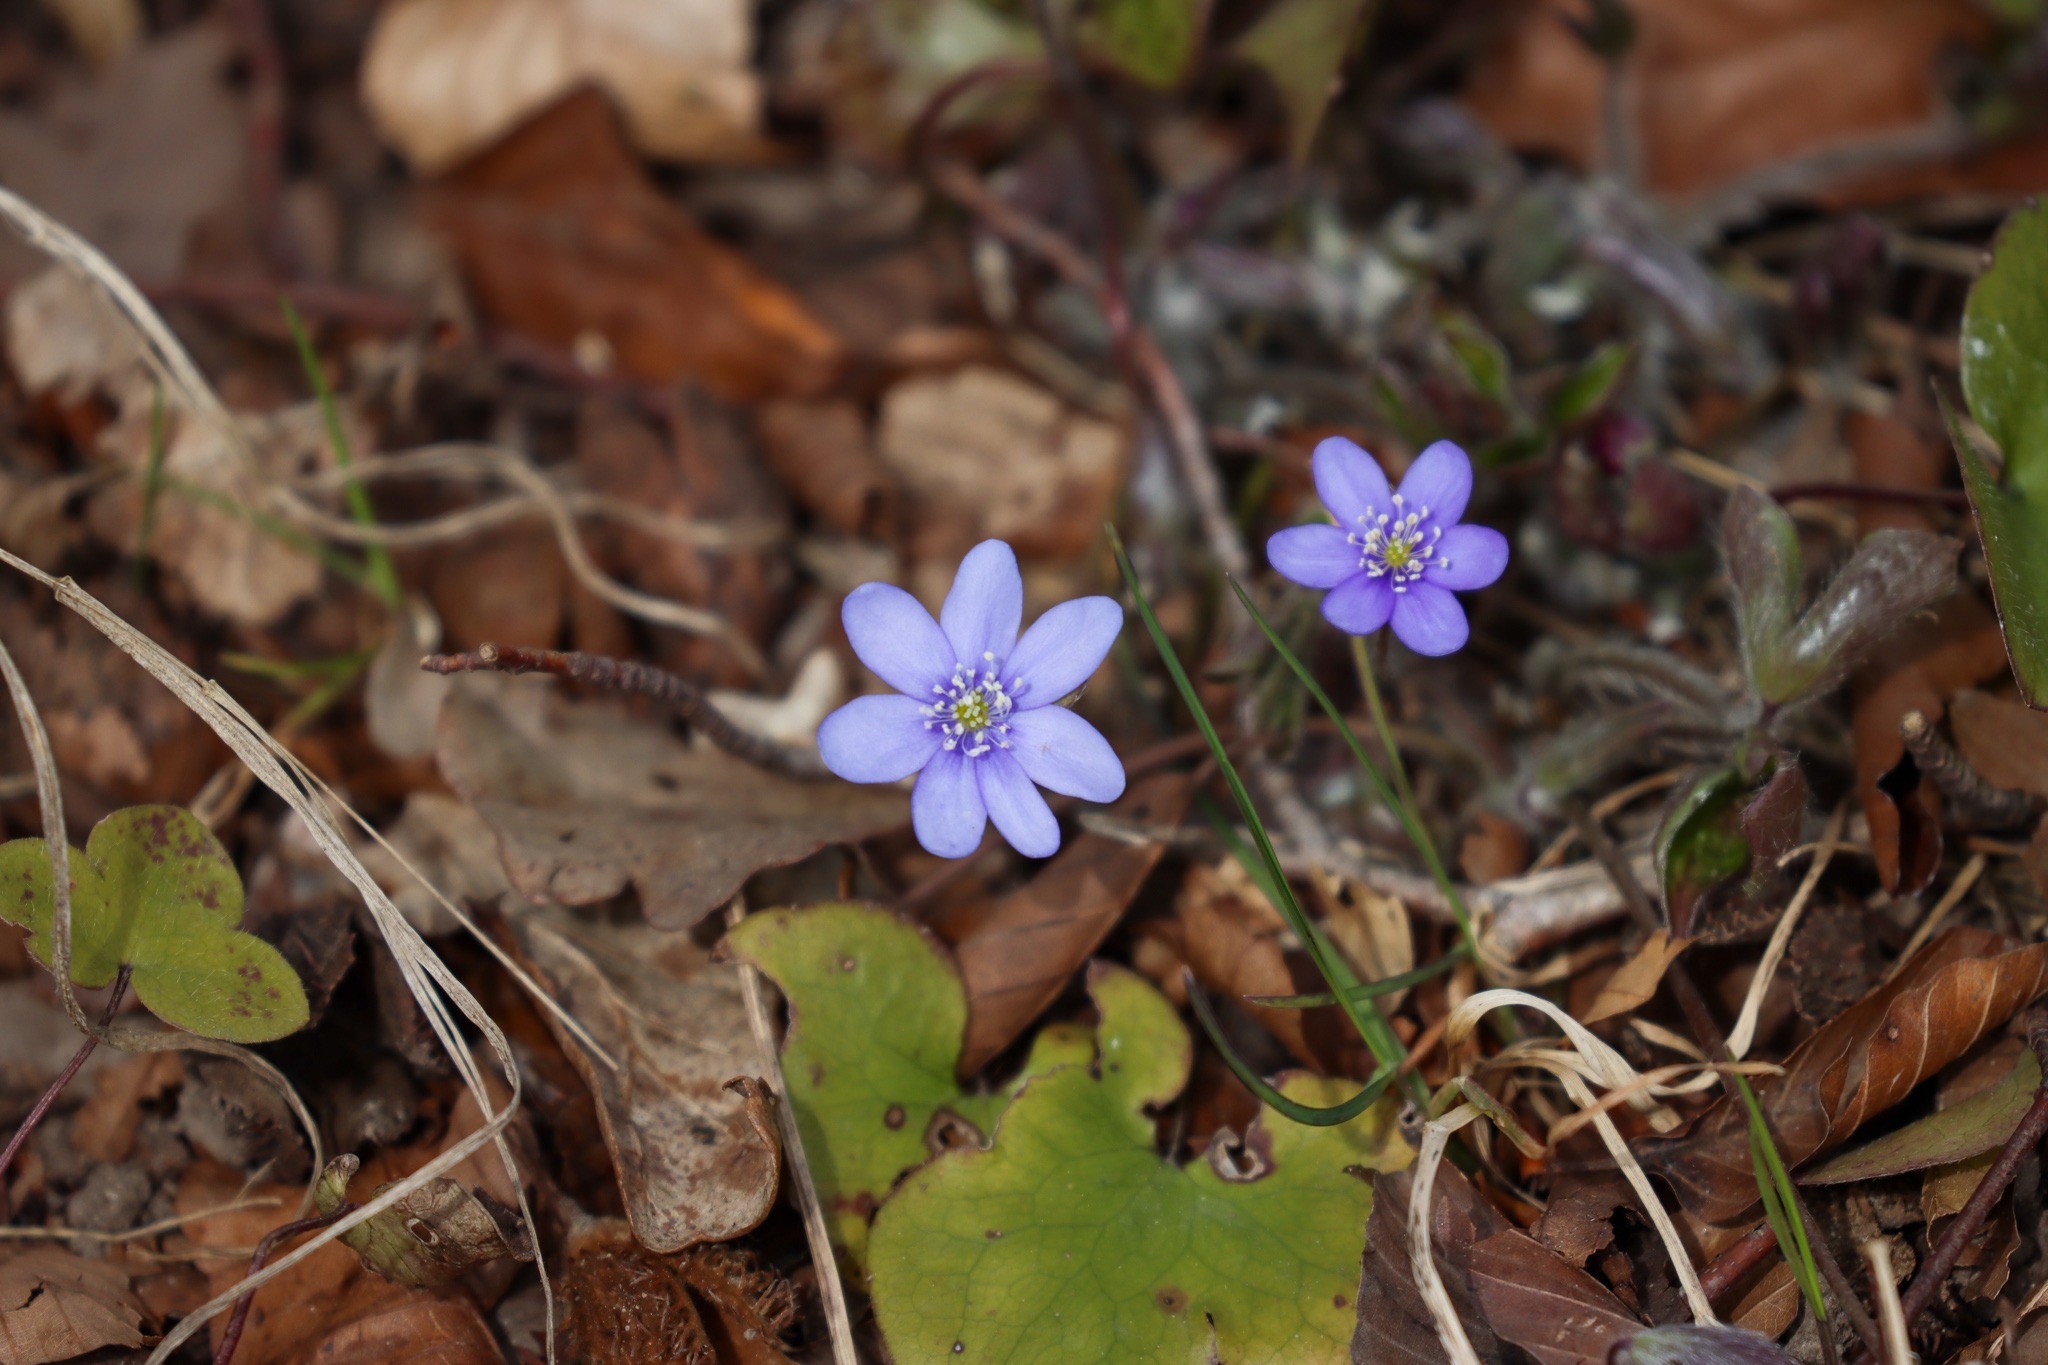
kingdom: Plantae
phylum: Tracheophyta
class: Magnoliopsida
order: Ranunculales
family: Ranunculaceae
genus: Hepatica
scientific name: Hepatica nobilis
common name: Blå anemone
